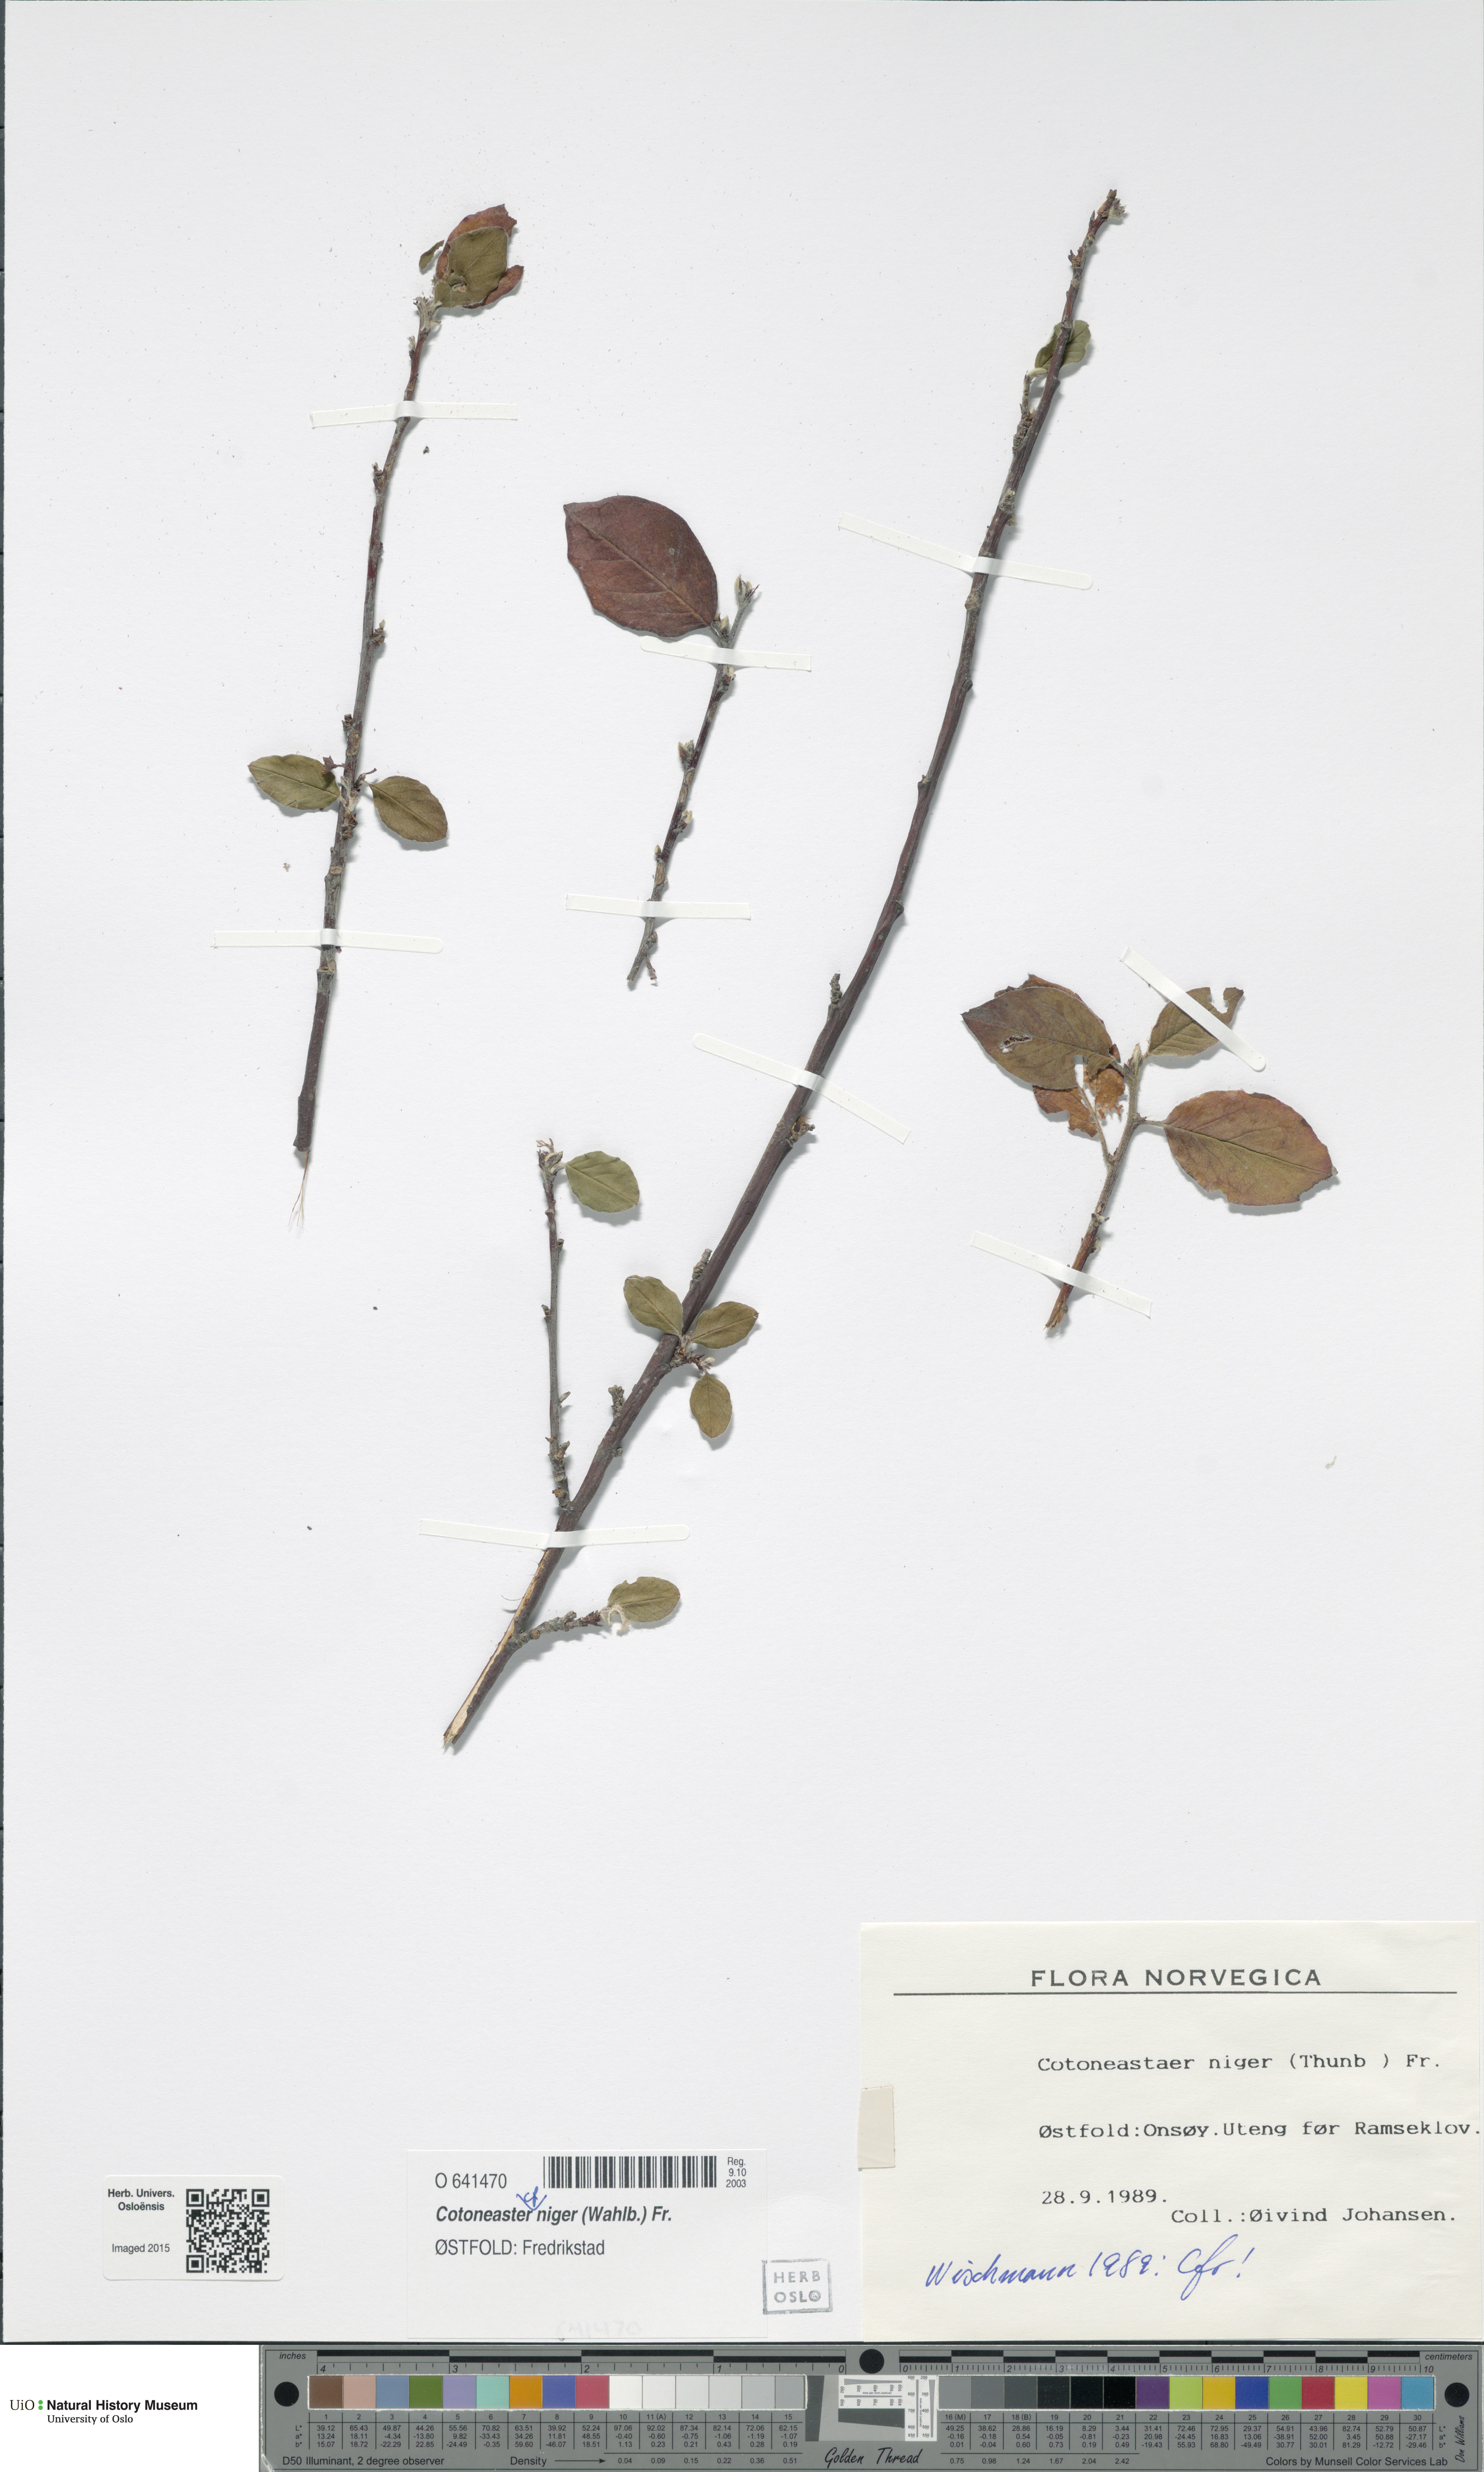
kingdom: Plantae
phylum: Tracheophyta
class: Magnoliopsida
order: Rosales
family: Rosaceae
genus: Cotoneaster
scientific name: Cotoneaster niger
